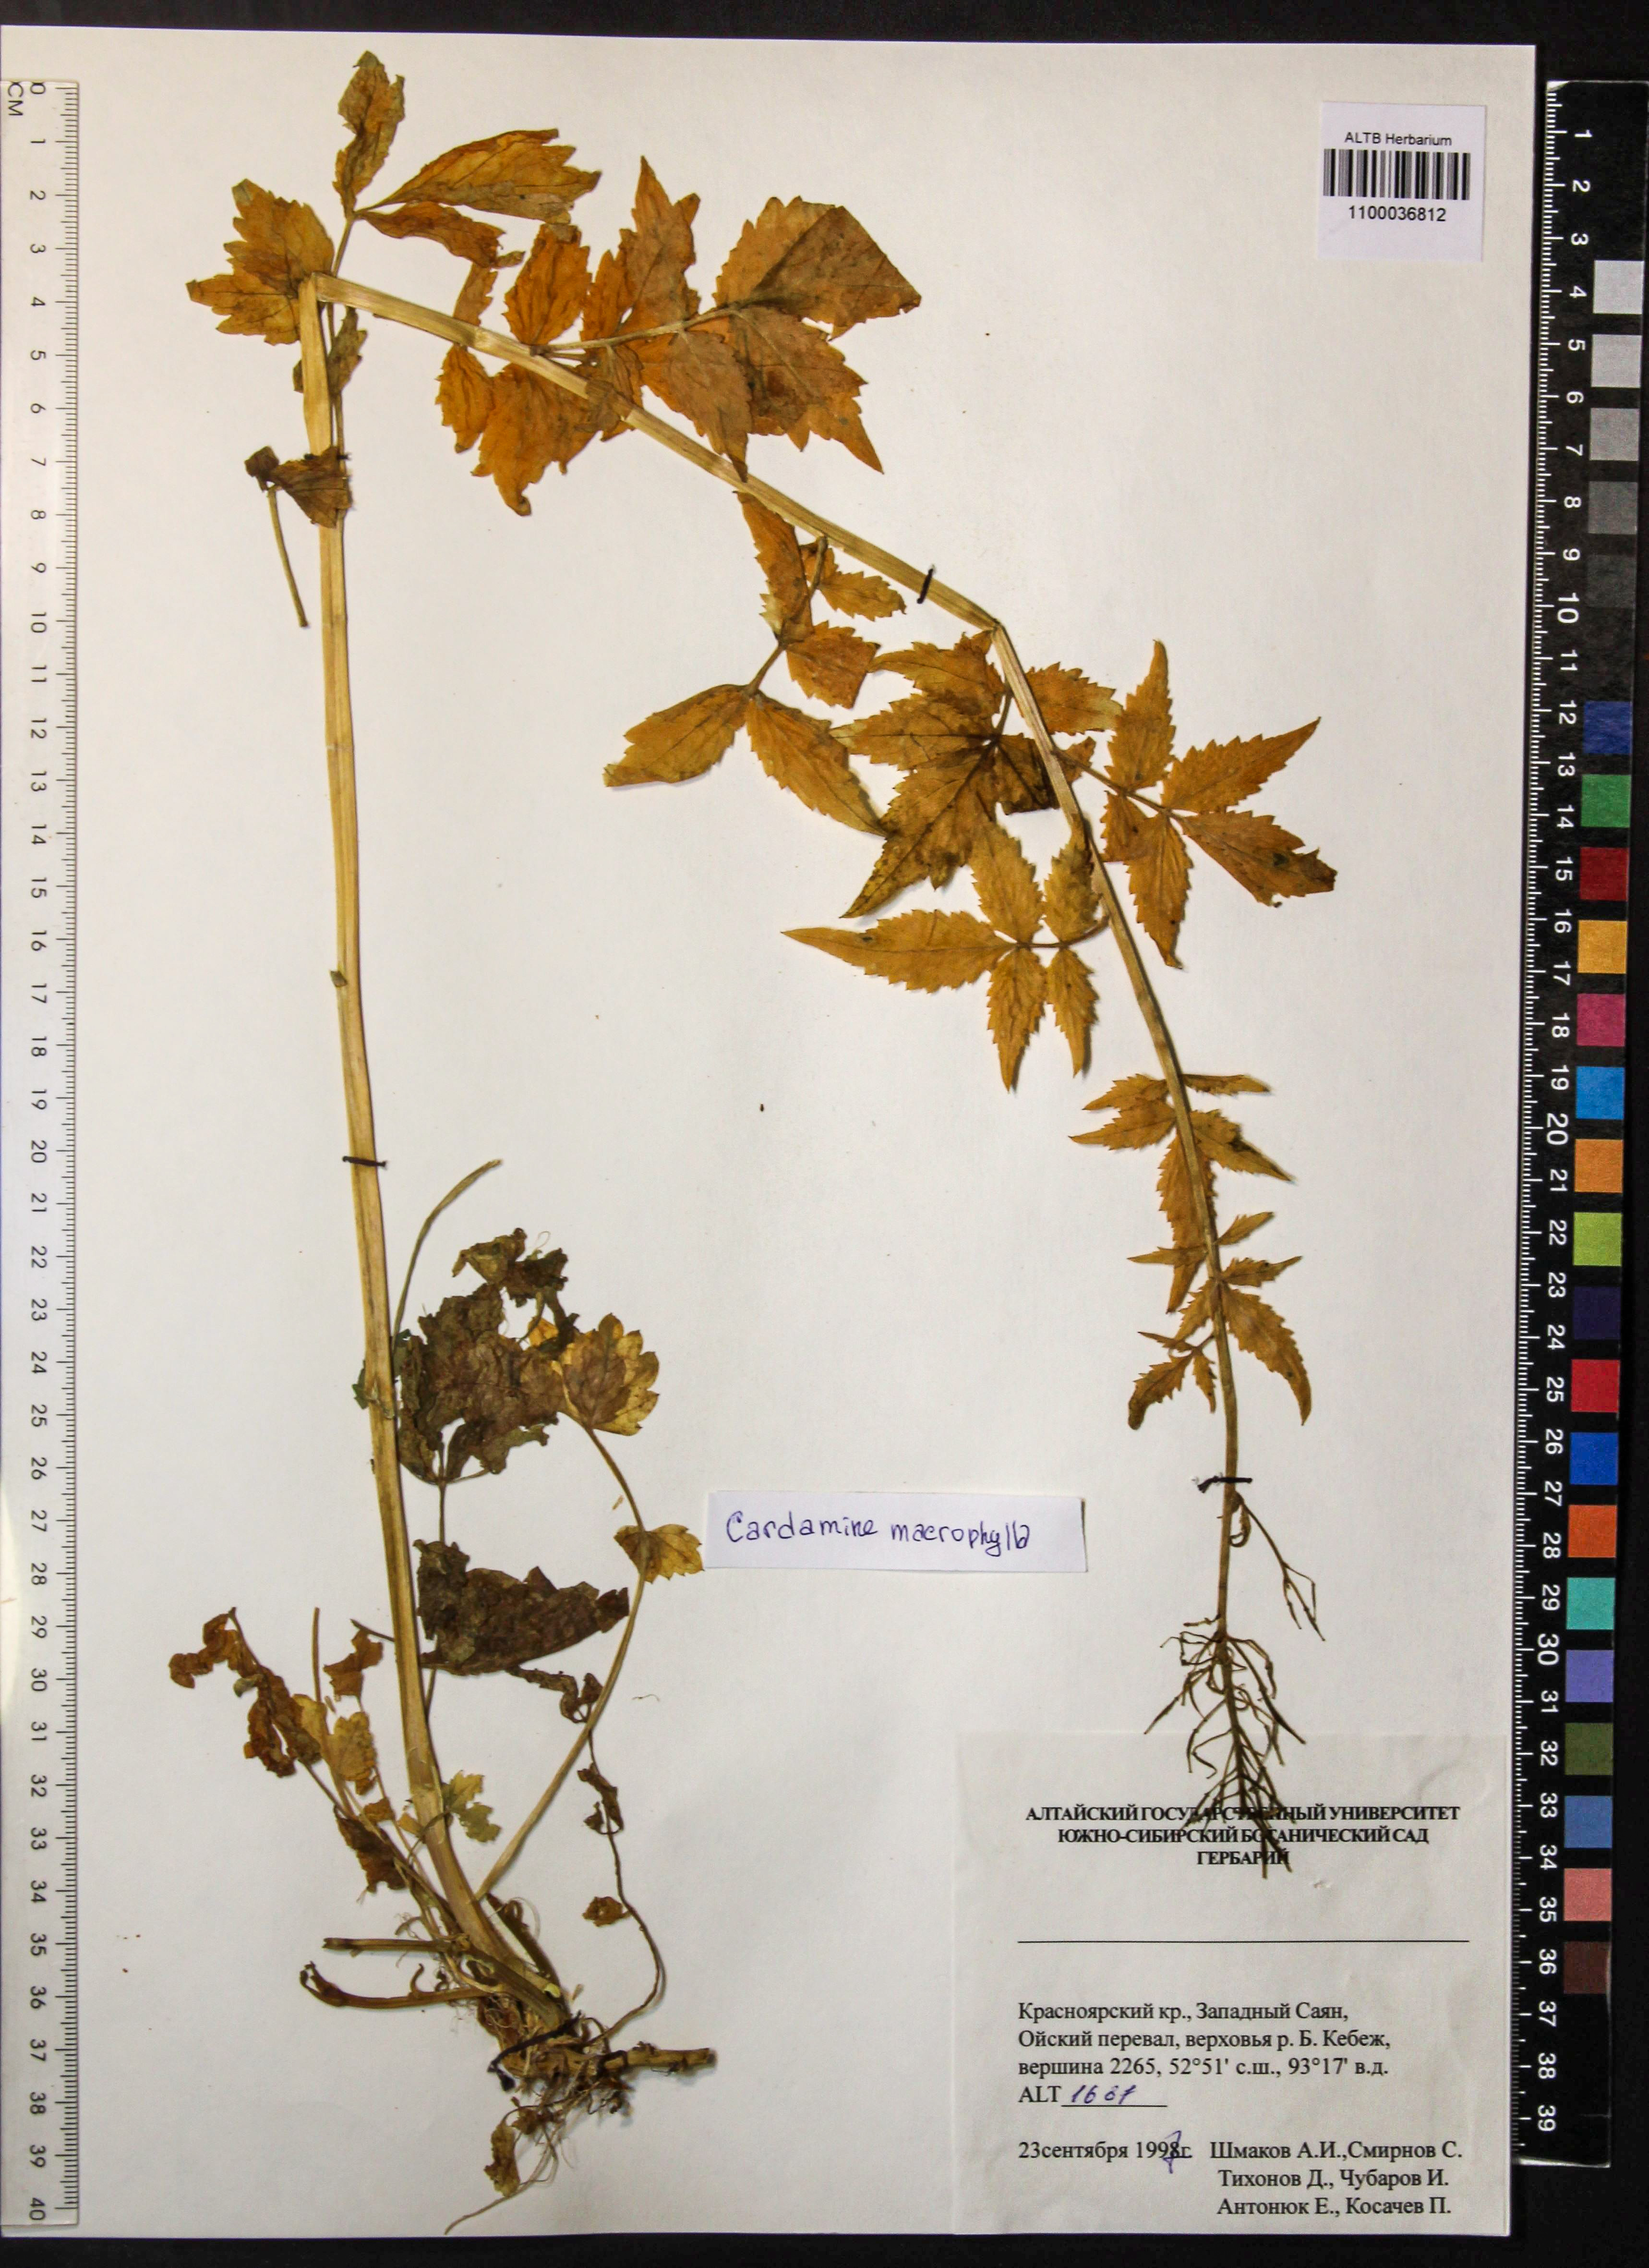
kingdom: Plantae
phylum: Tracheophyta
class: Magnoliopsida
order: Brassicales
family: Brassicaceae
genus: Cardamine
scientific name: Cardamine macrophylla
